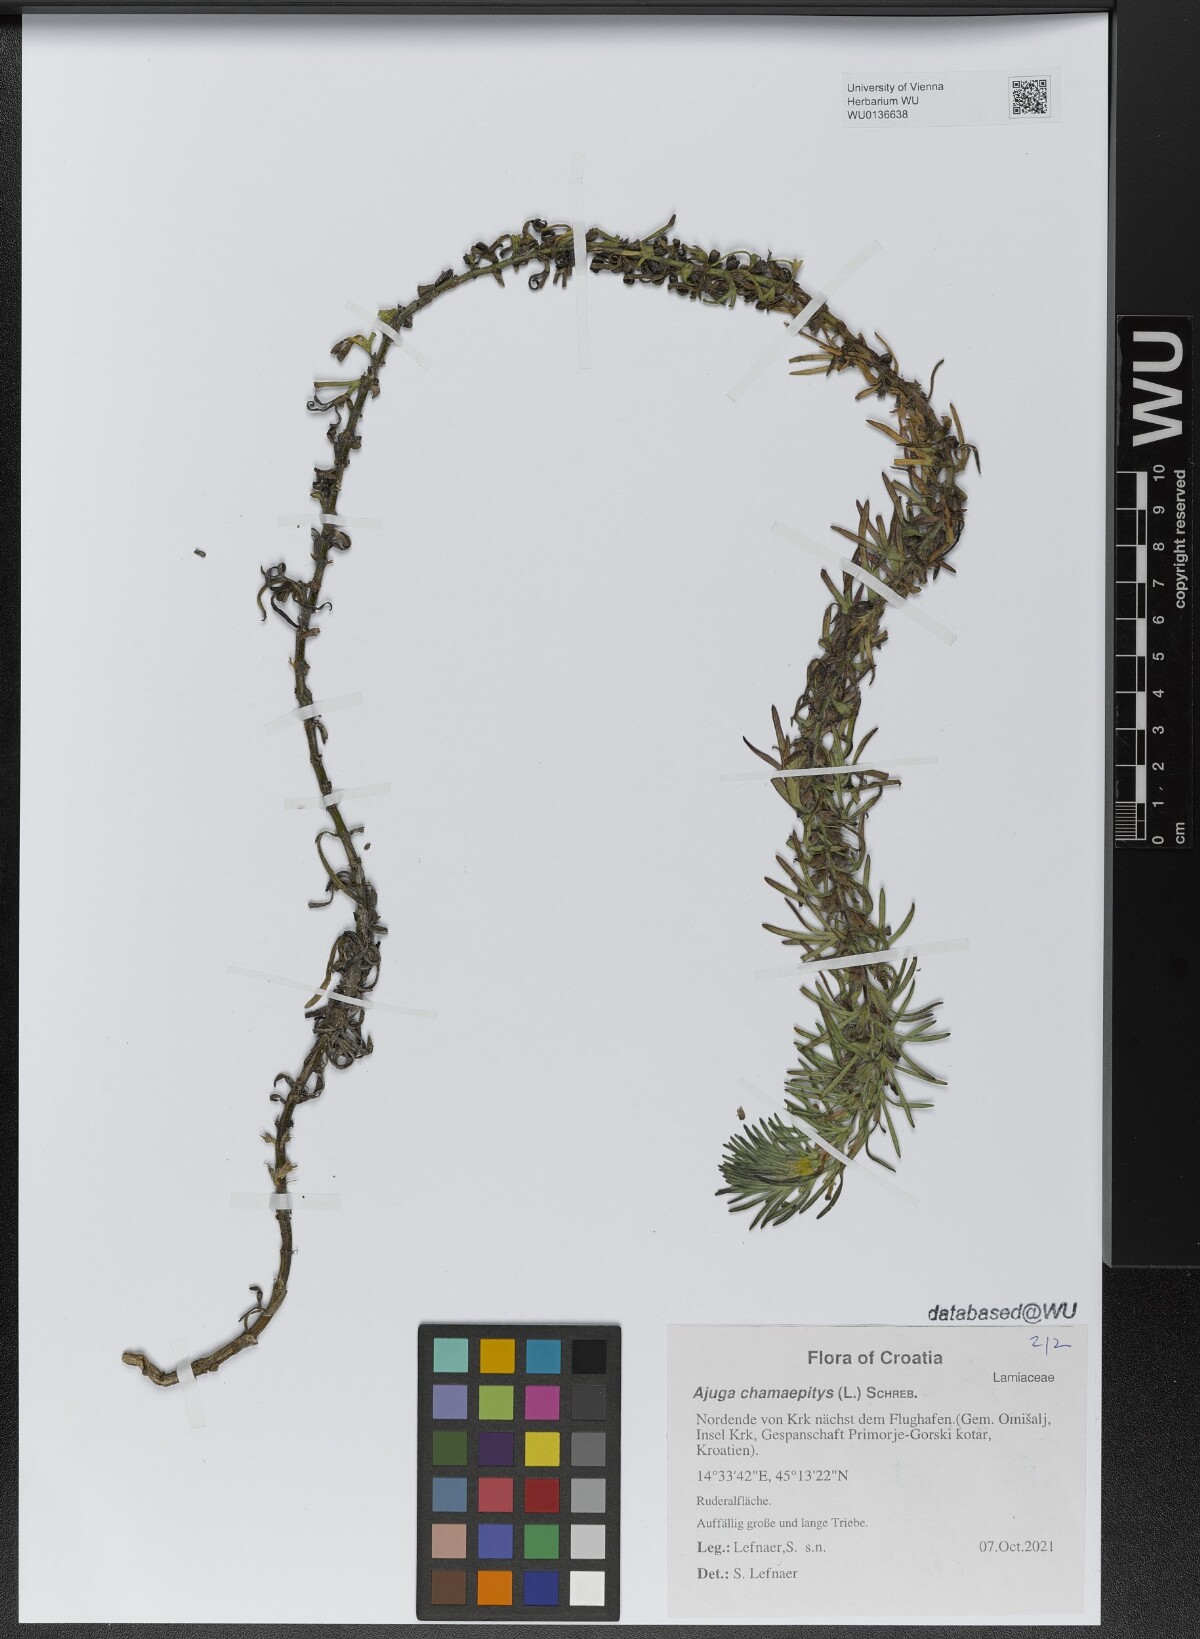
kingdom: Plantae
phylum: Tracheophyta
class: Magnoliopsida
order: Lamiales
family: Lamiaceae
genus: Ajuga
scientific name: Ajuga chamaepitys
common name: Ground-pine
